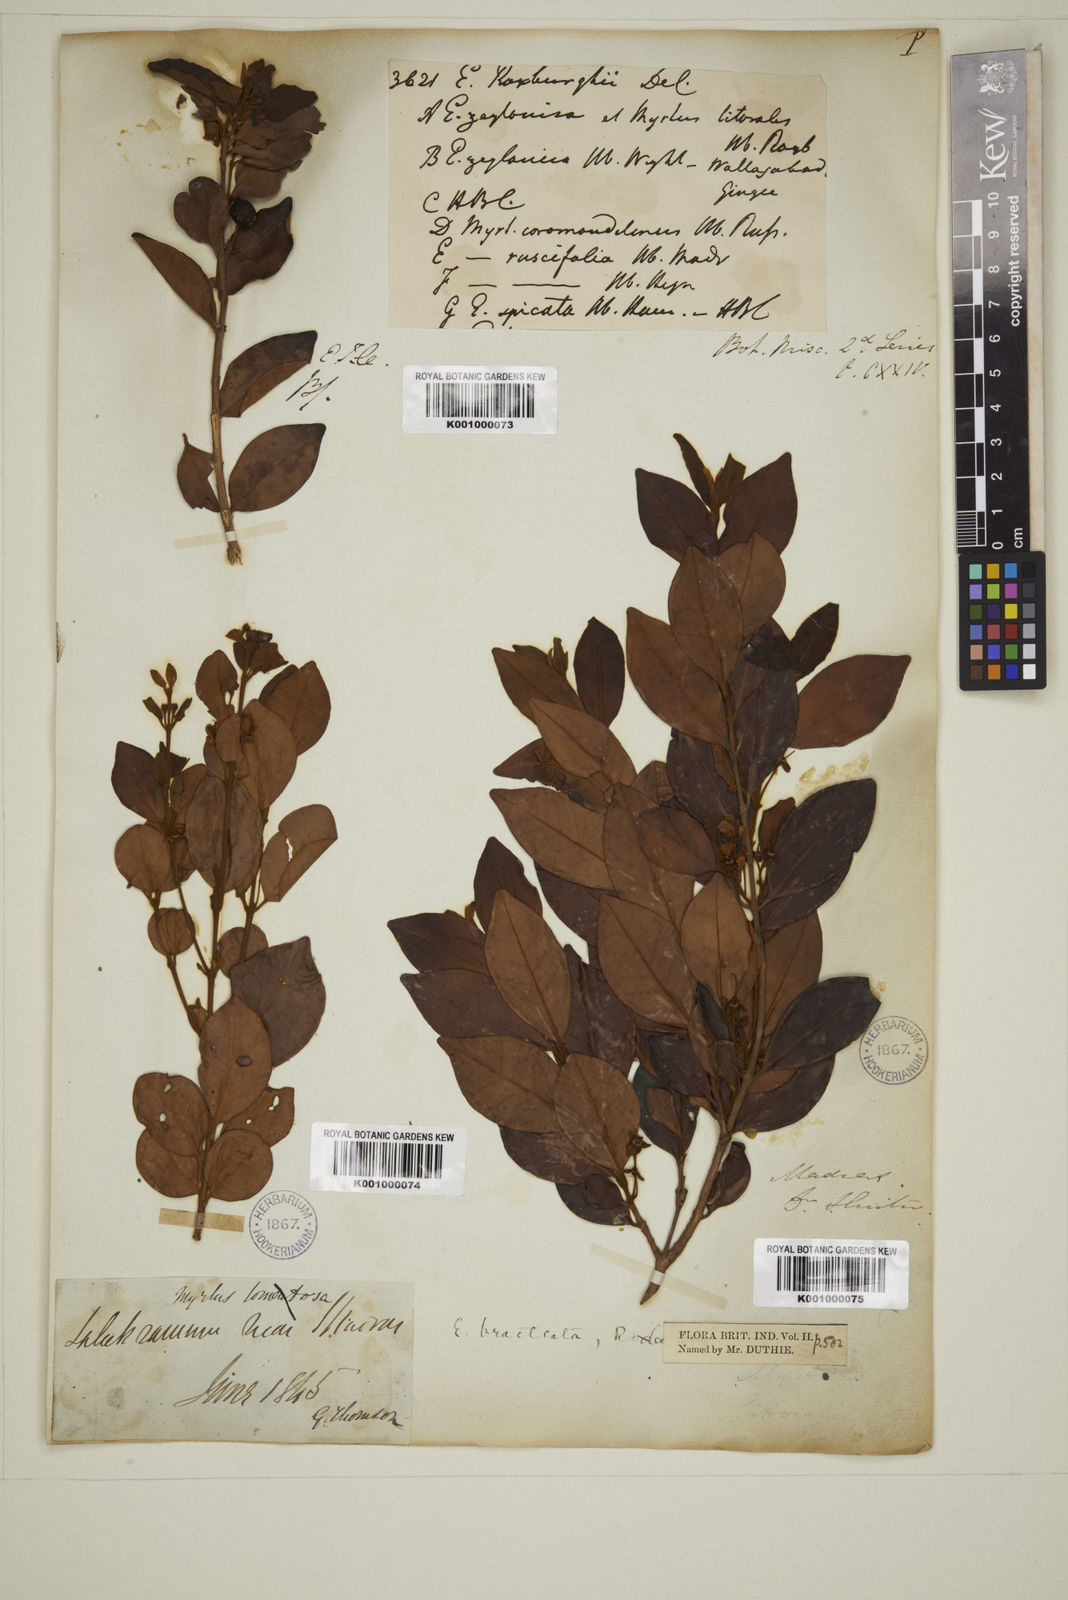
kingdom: Plantae
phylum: Tracheophyta
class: Magnoliopsida
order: Myrtales
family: Myrtaceae
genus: Myrcia
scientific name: Myrcia bracteata
